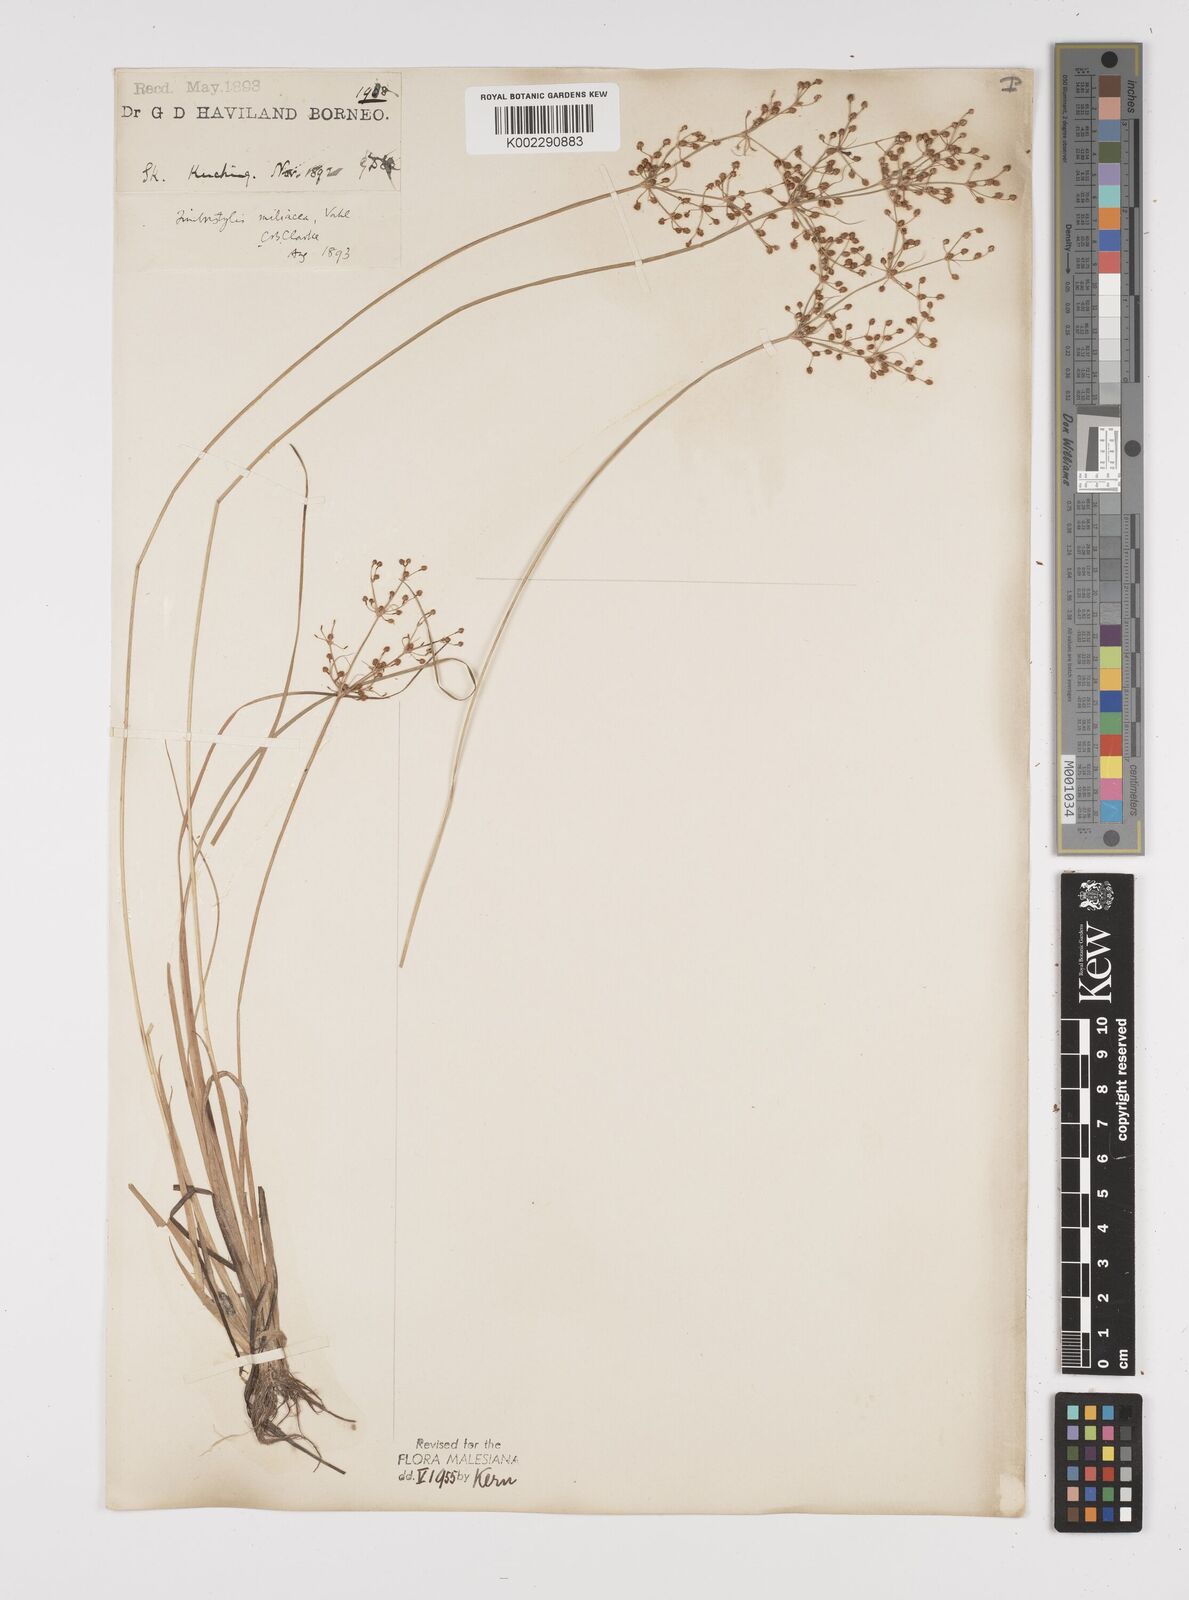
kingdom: Plantae
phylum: Tracheophyta
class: Liliopsida
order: Poales
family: Cyperaceae
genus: Fimbristylis
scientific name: Fimbristylis littoralis
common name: Fimbry
